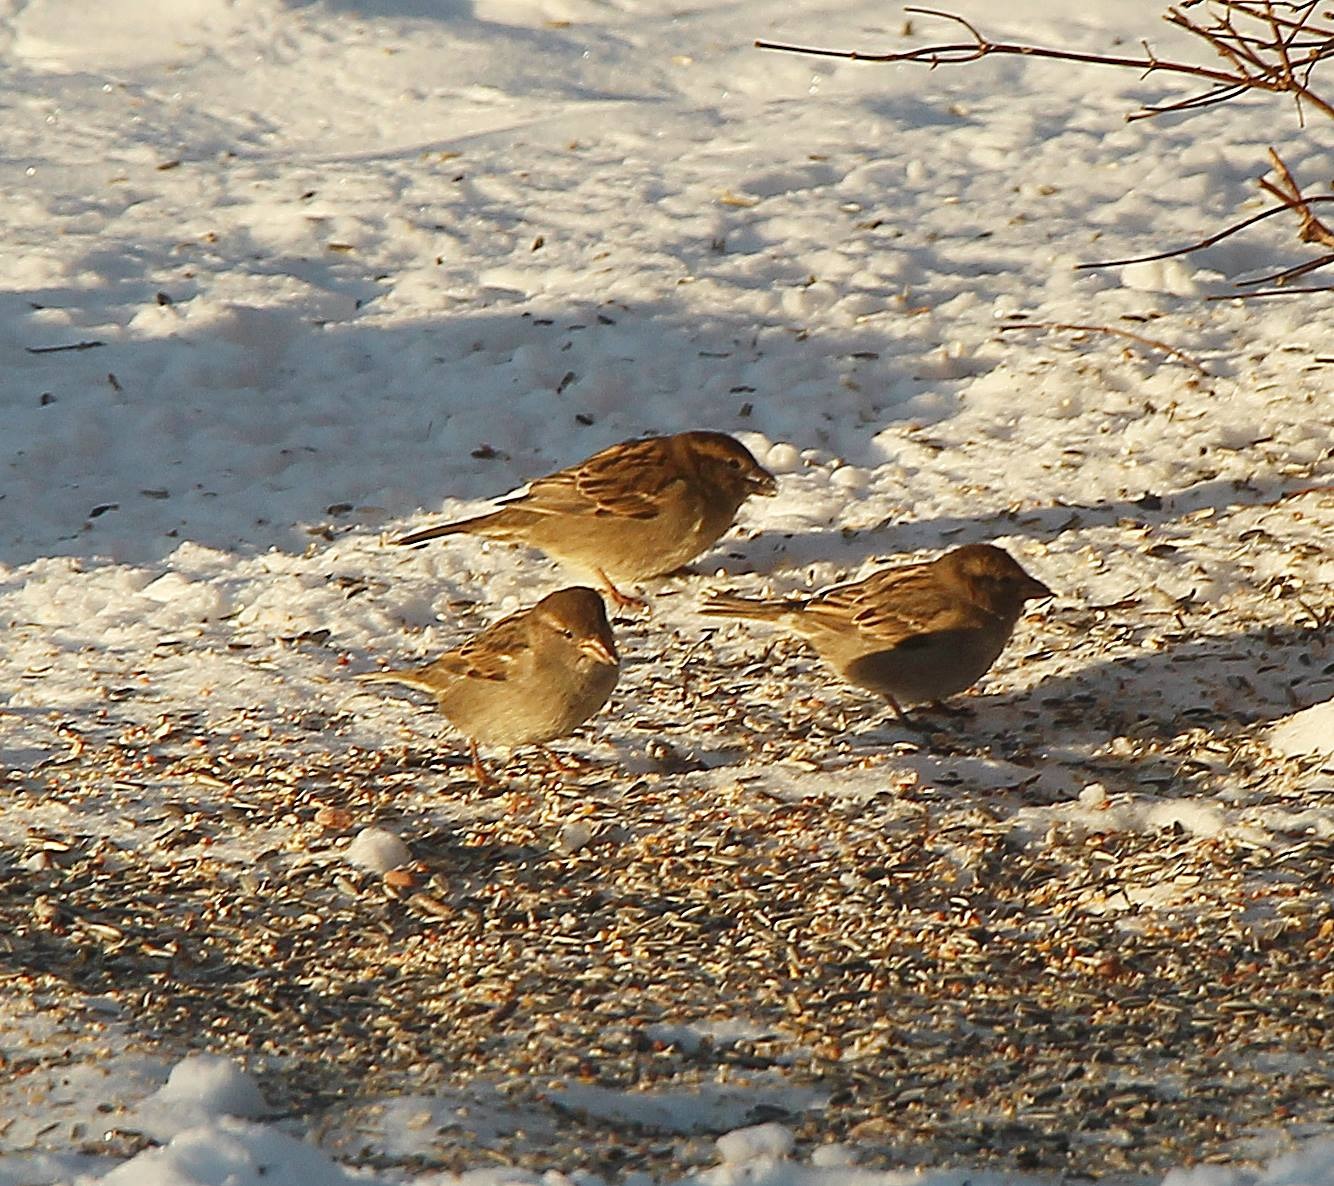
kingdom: Animalia
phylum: Chordata
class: Aves
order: Passeriformes
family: Passeridae
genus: Passer
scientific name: Passer domesticus
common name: Gråspurv
